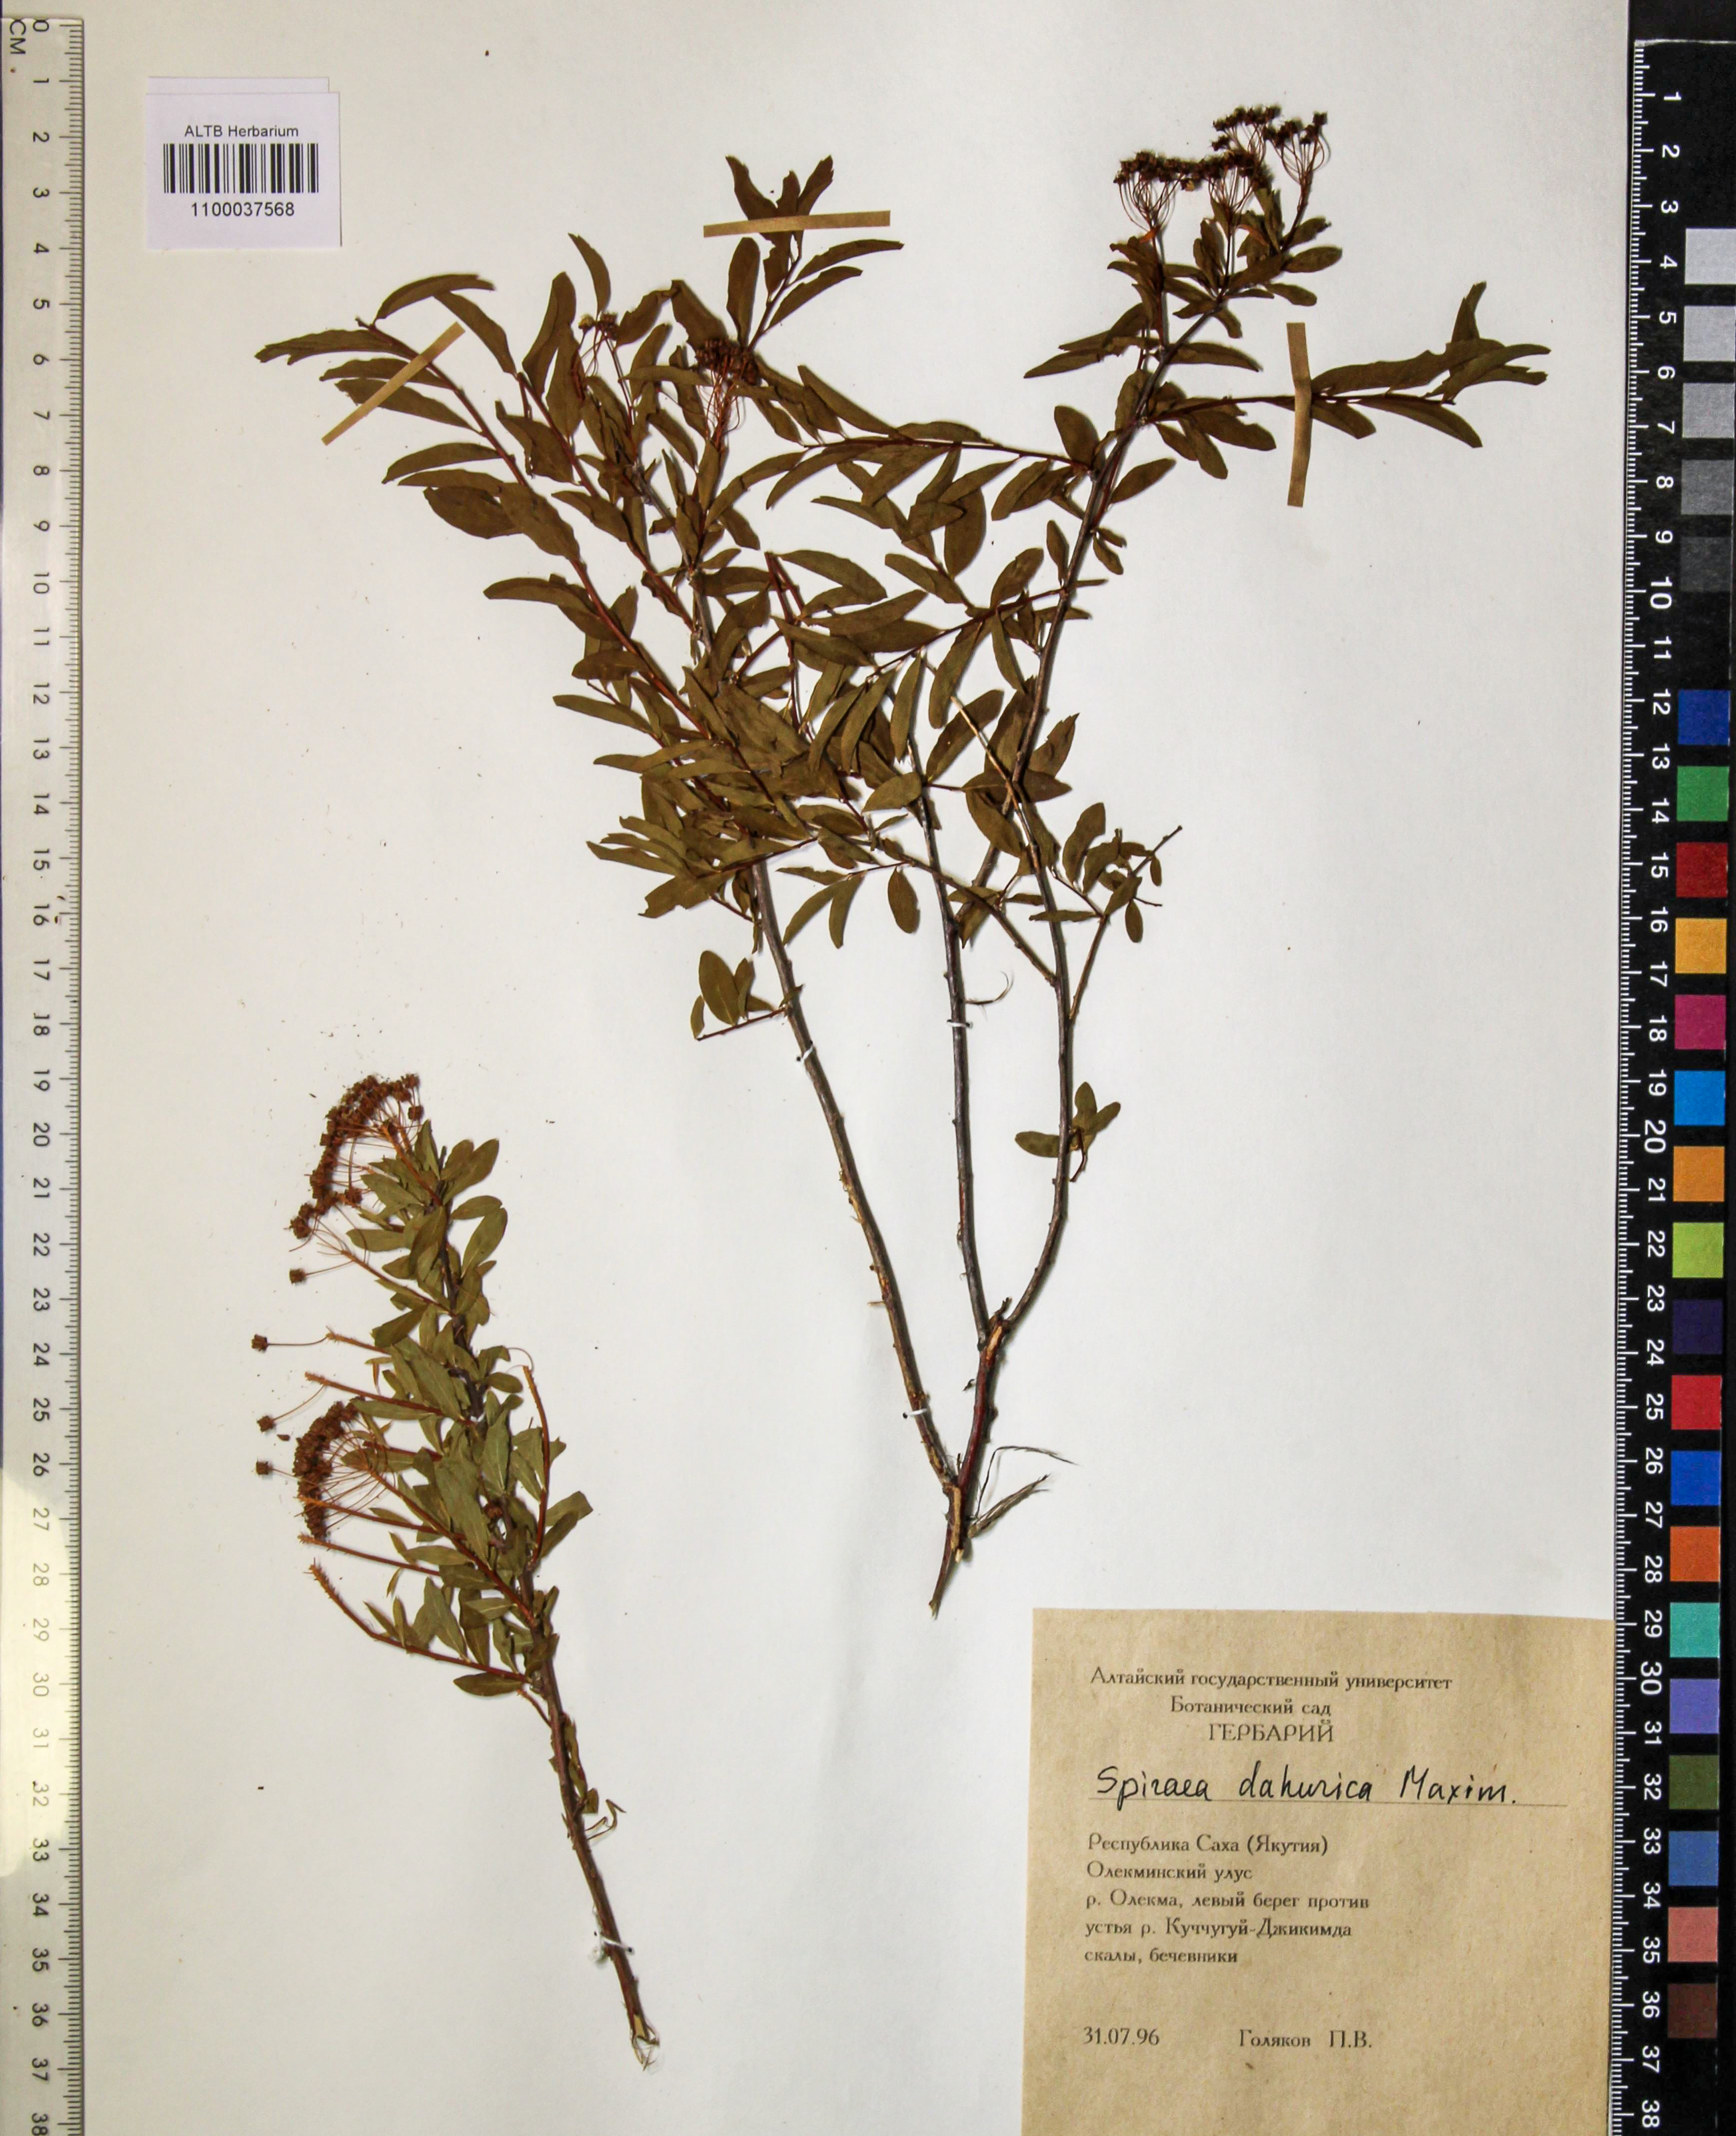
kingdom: Plantae
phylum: Tracheophyta
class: Magnoliopsida
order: Rosales
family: Rosaceae
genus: Spiraea
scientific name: Spiraea dahurica
